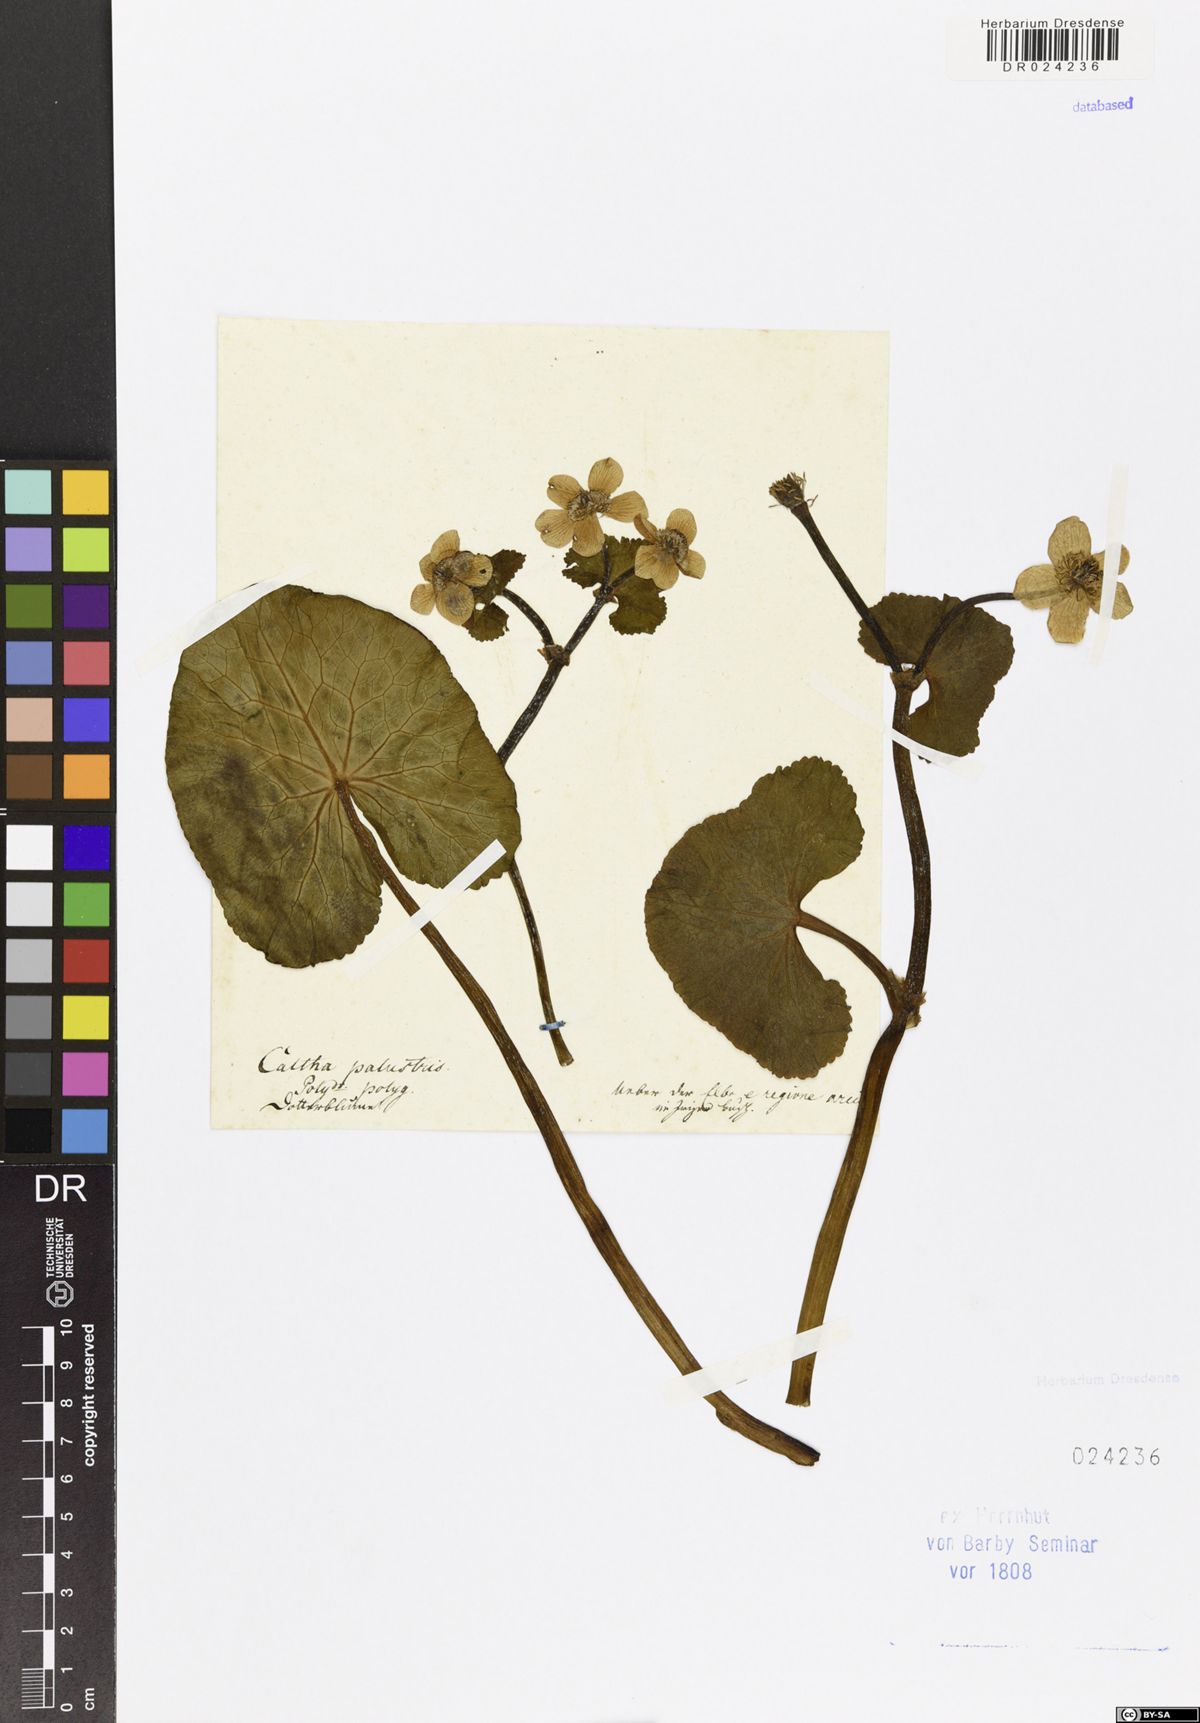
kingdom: Plantae
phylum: Tracheophyta
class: Magnoliopsida
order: Ranunculales
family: Ranunculaceae
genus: Caltha
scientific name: Caltha palustris
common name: Marsh marigold
